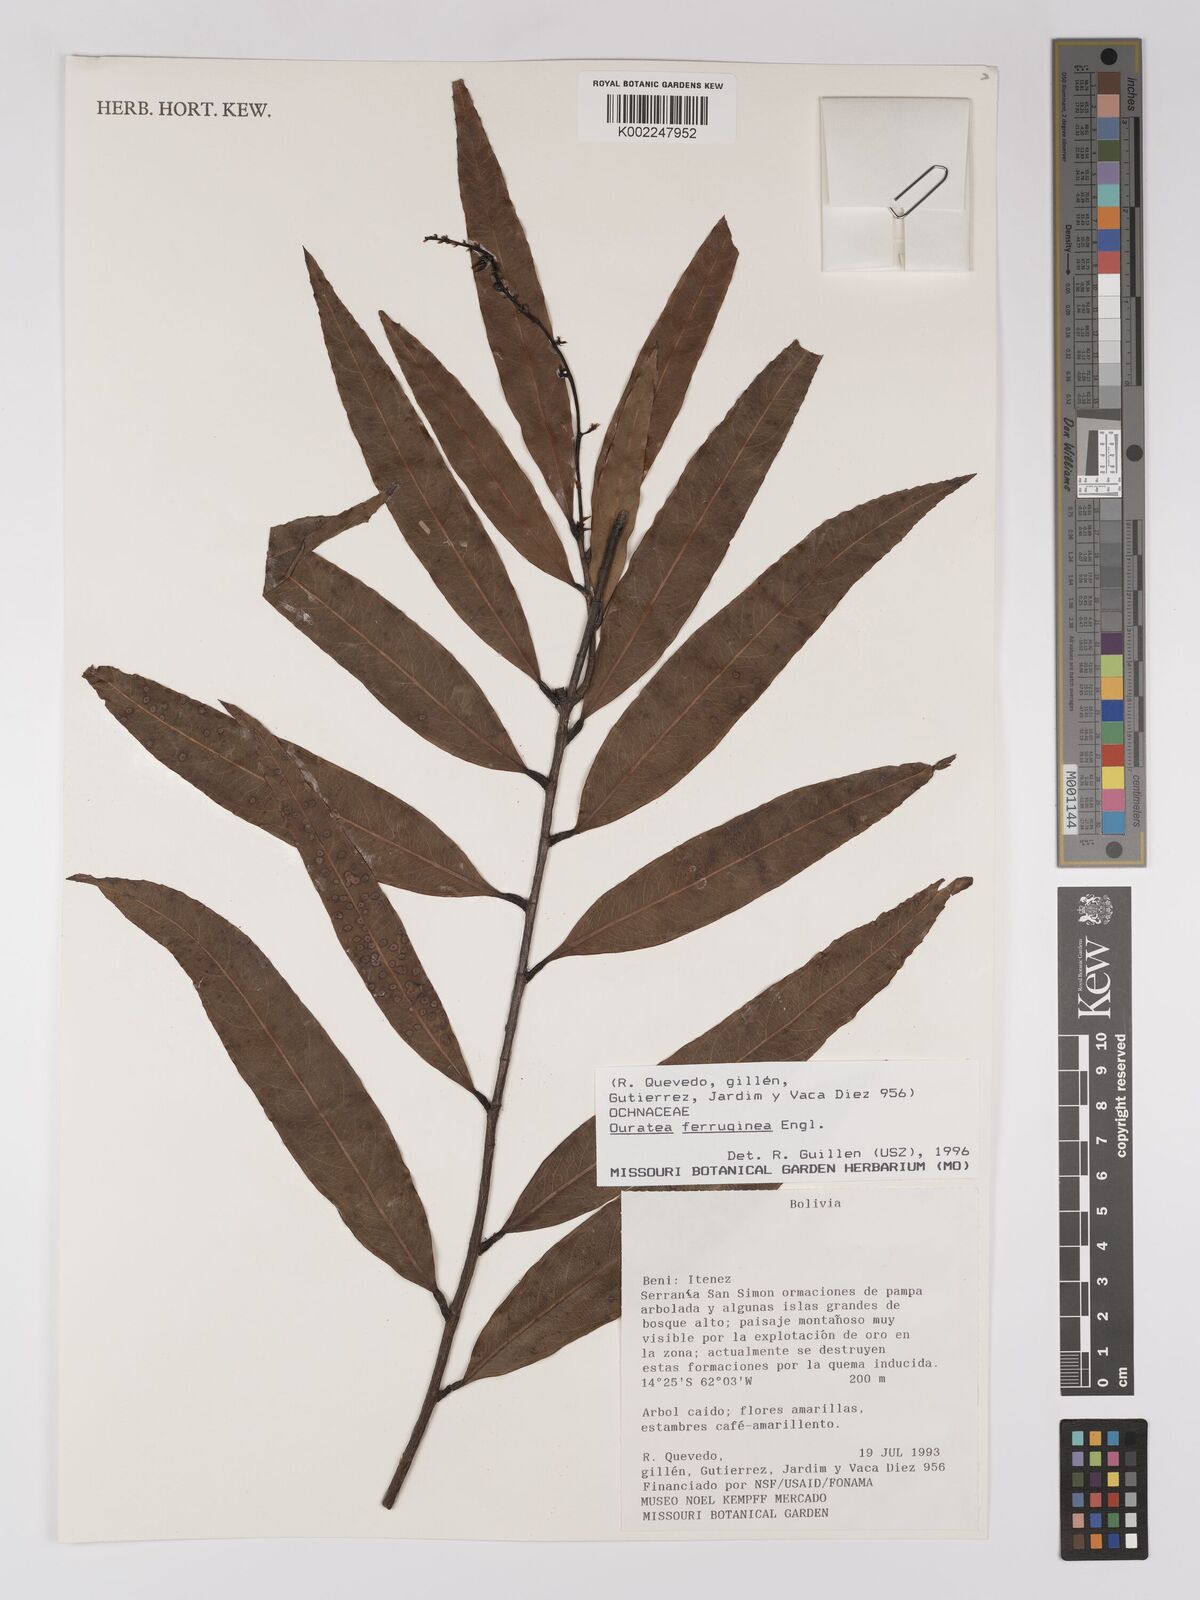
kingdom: Plantae
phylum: Tracheophyta
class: Magnoliopsida
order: Malpighiales
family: Ochnaceae
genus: Ouratea
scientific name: Ouratea ferruginea
